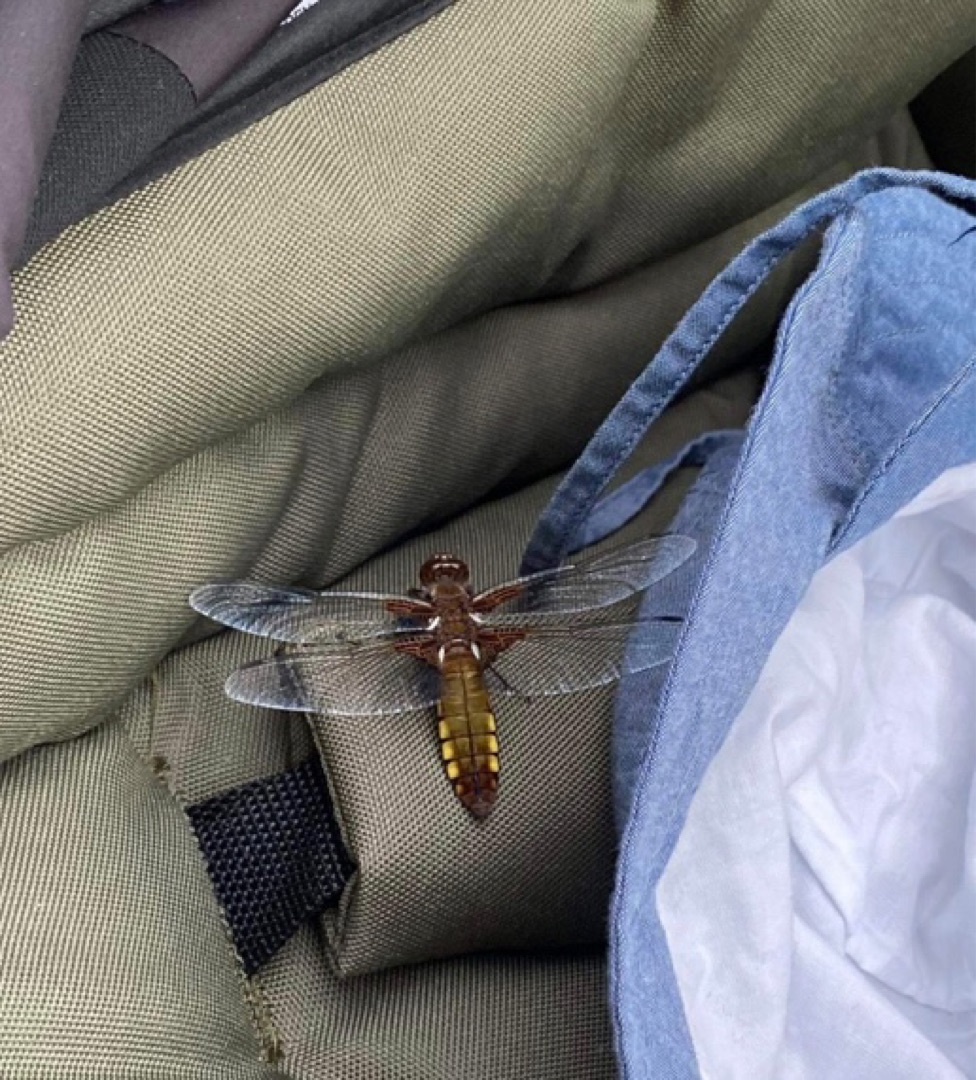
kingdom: Animalia
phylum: Arthropoda
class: Insecta
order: Odonata
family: Libellulidae
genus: Libellula
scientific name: Libellula depressa
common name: Blå libel
